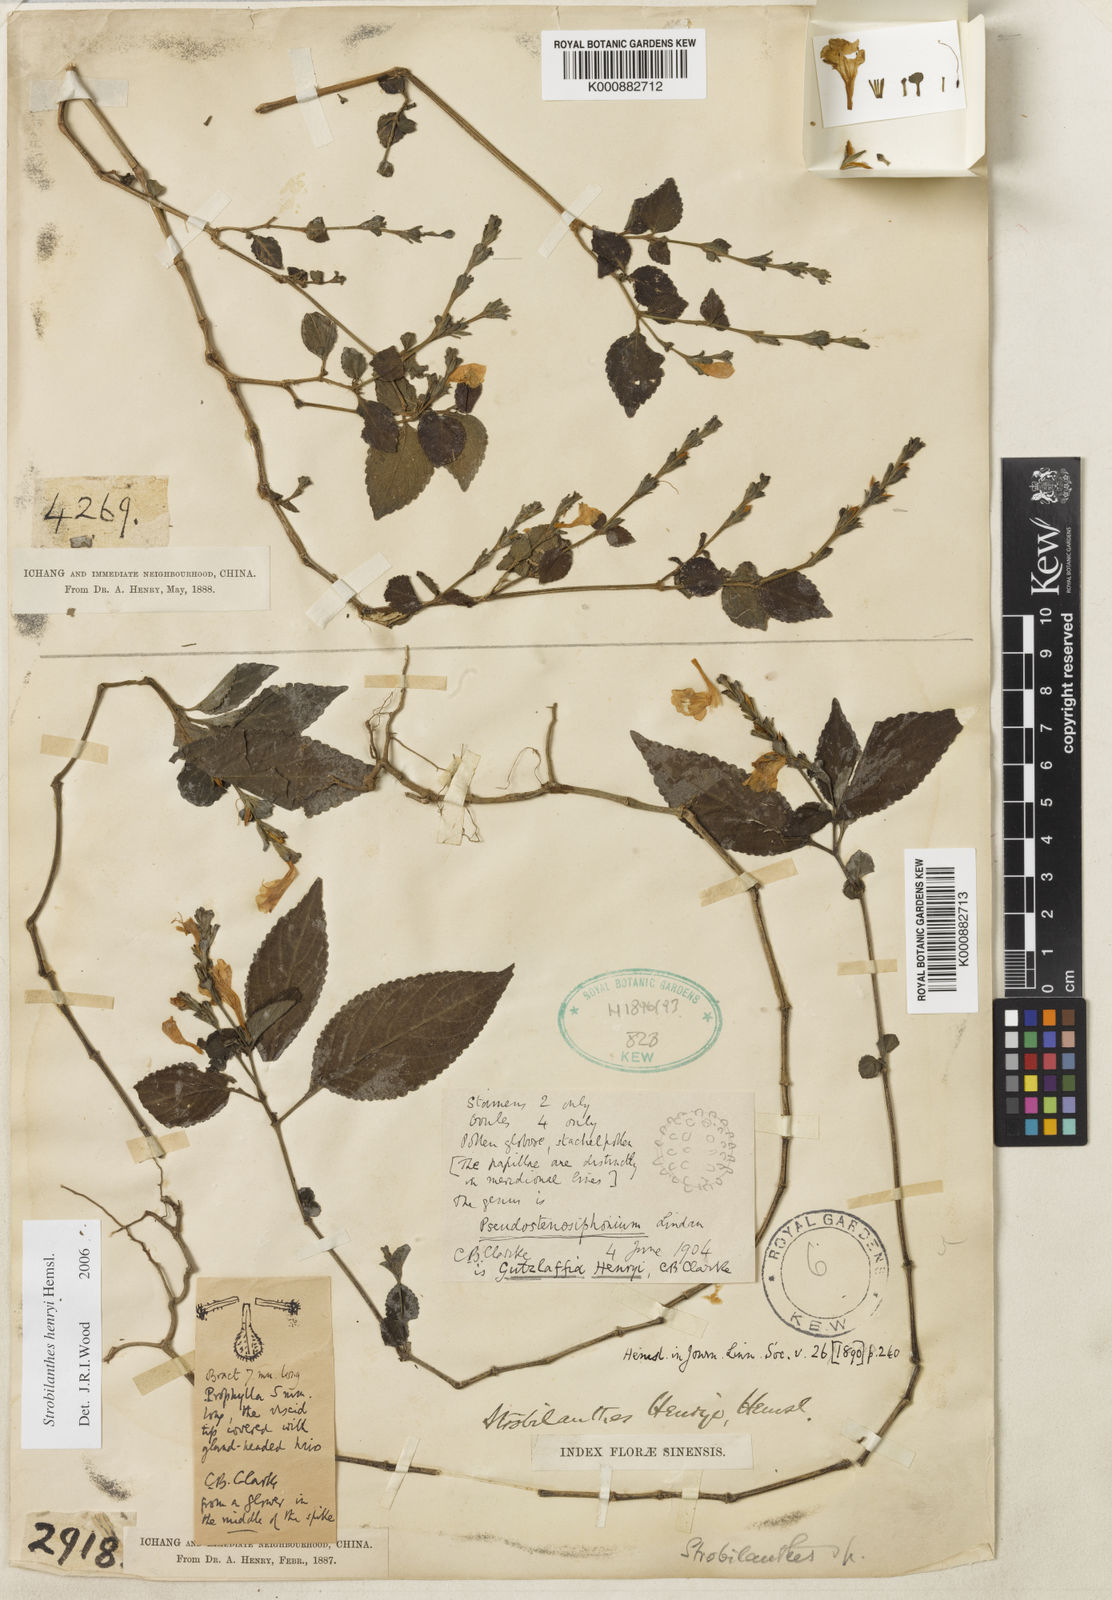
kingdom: Plantae
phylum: Tracheophyta
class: Magnoliopsida
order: Lamiales
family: Acanthaceae
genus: Strobilanthes
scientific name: Strobilanthes henryi
